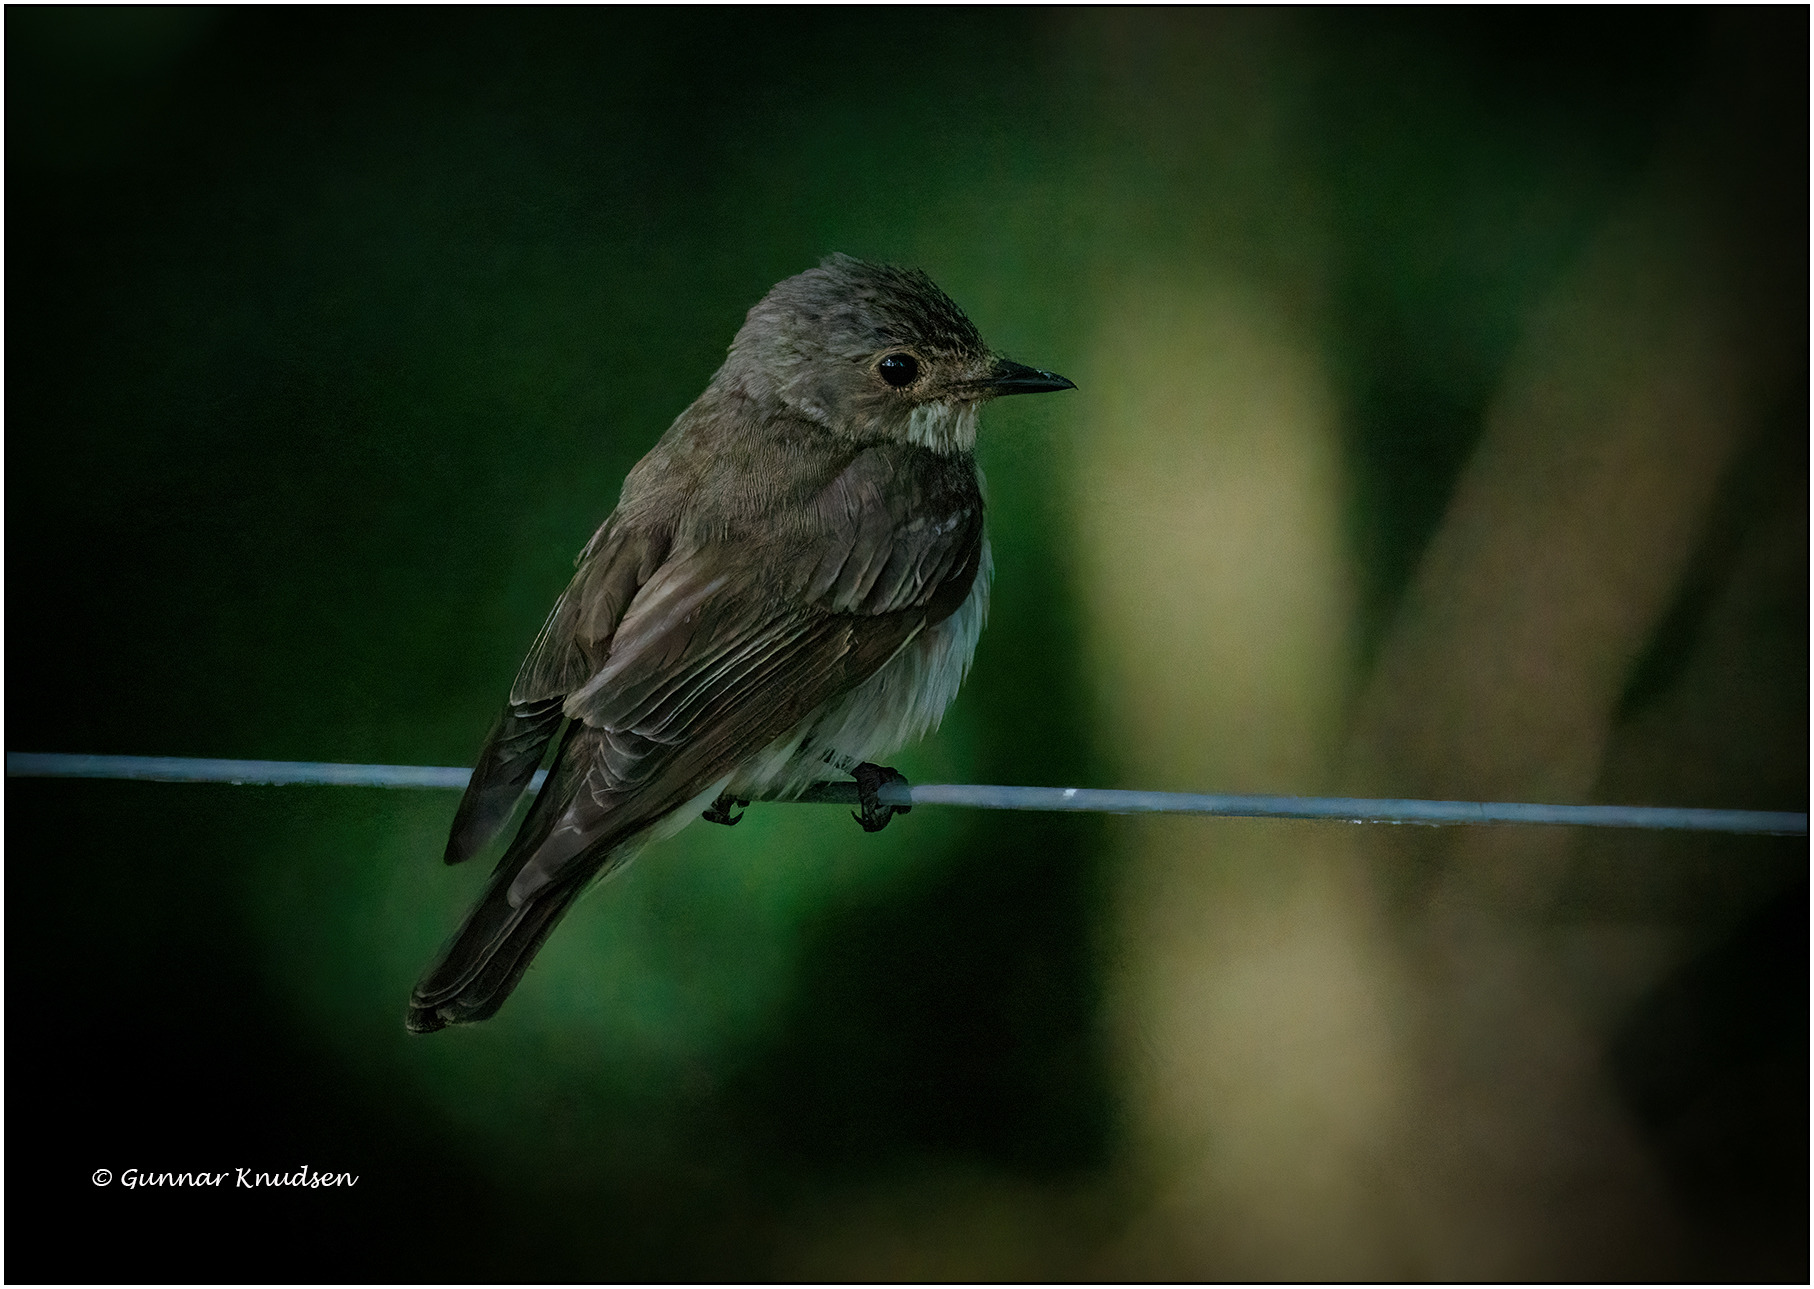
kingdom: Animalia
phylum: Chordata
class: Aves
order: Passeriformes
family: Muscicapidae
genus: Muscicapa
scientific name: Muscicapa striata
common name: Grå fluesnapper
